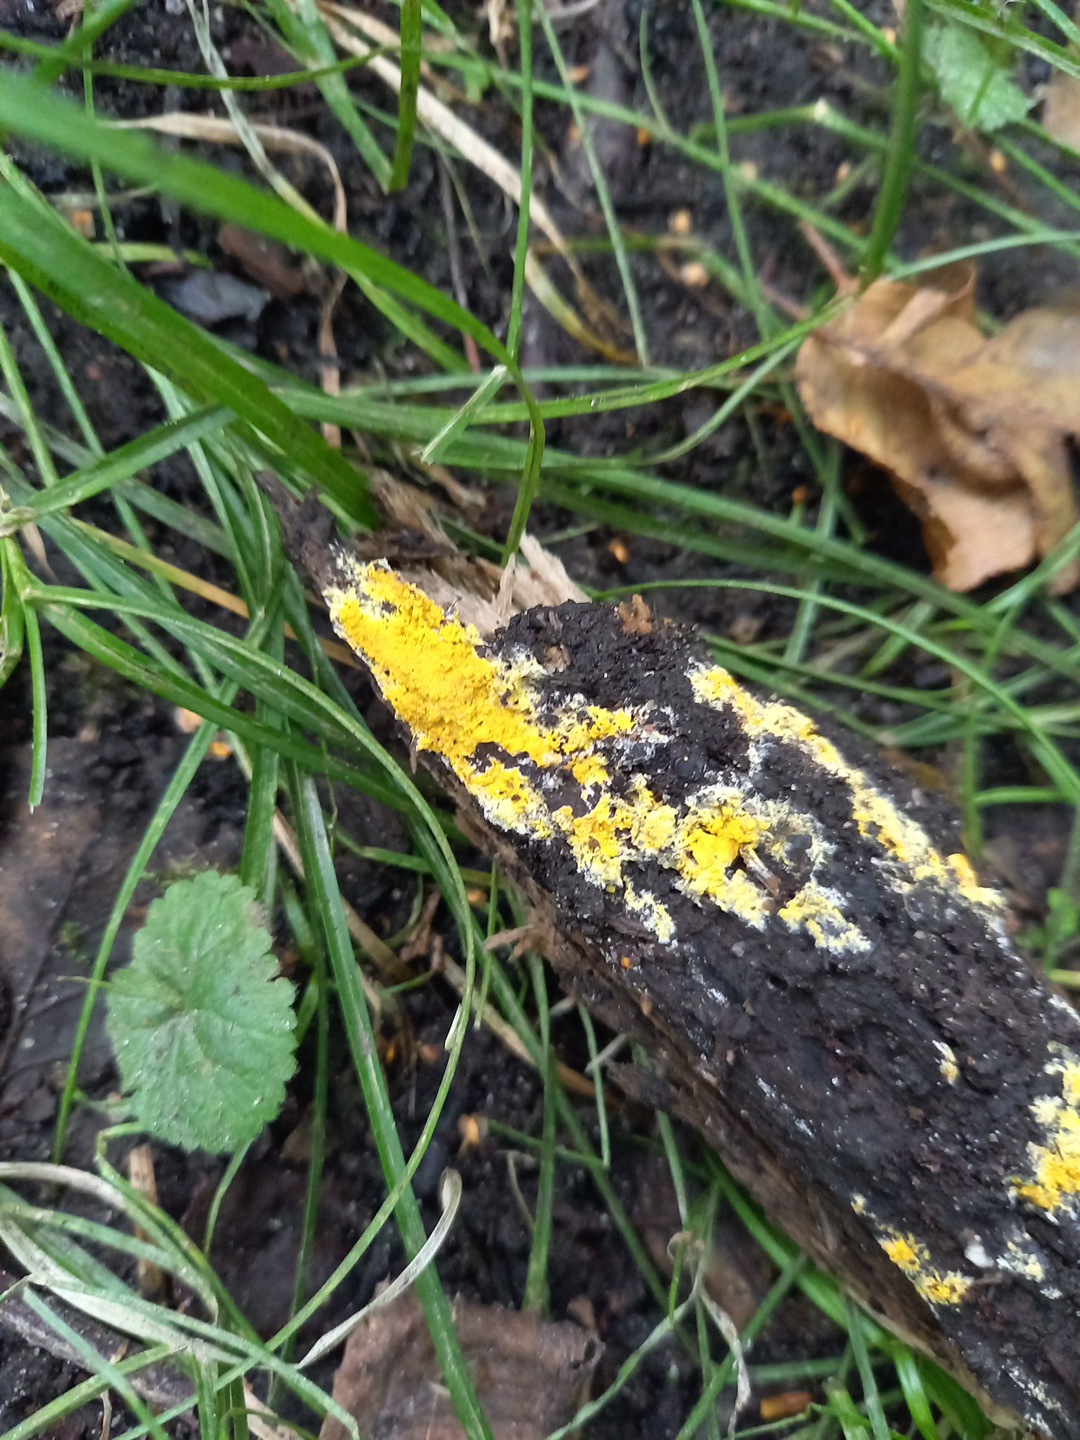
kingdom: Fungi
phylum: Basidiomycota
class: Agaricomycetes
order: Polyporales
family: Meruliaceae
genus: Phlebiodontia
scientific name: Phlebiodontia subochracea
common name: svovl-åresvamp
